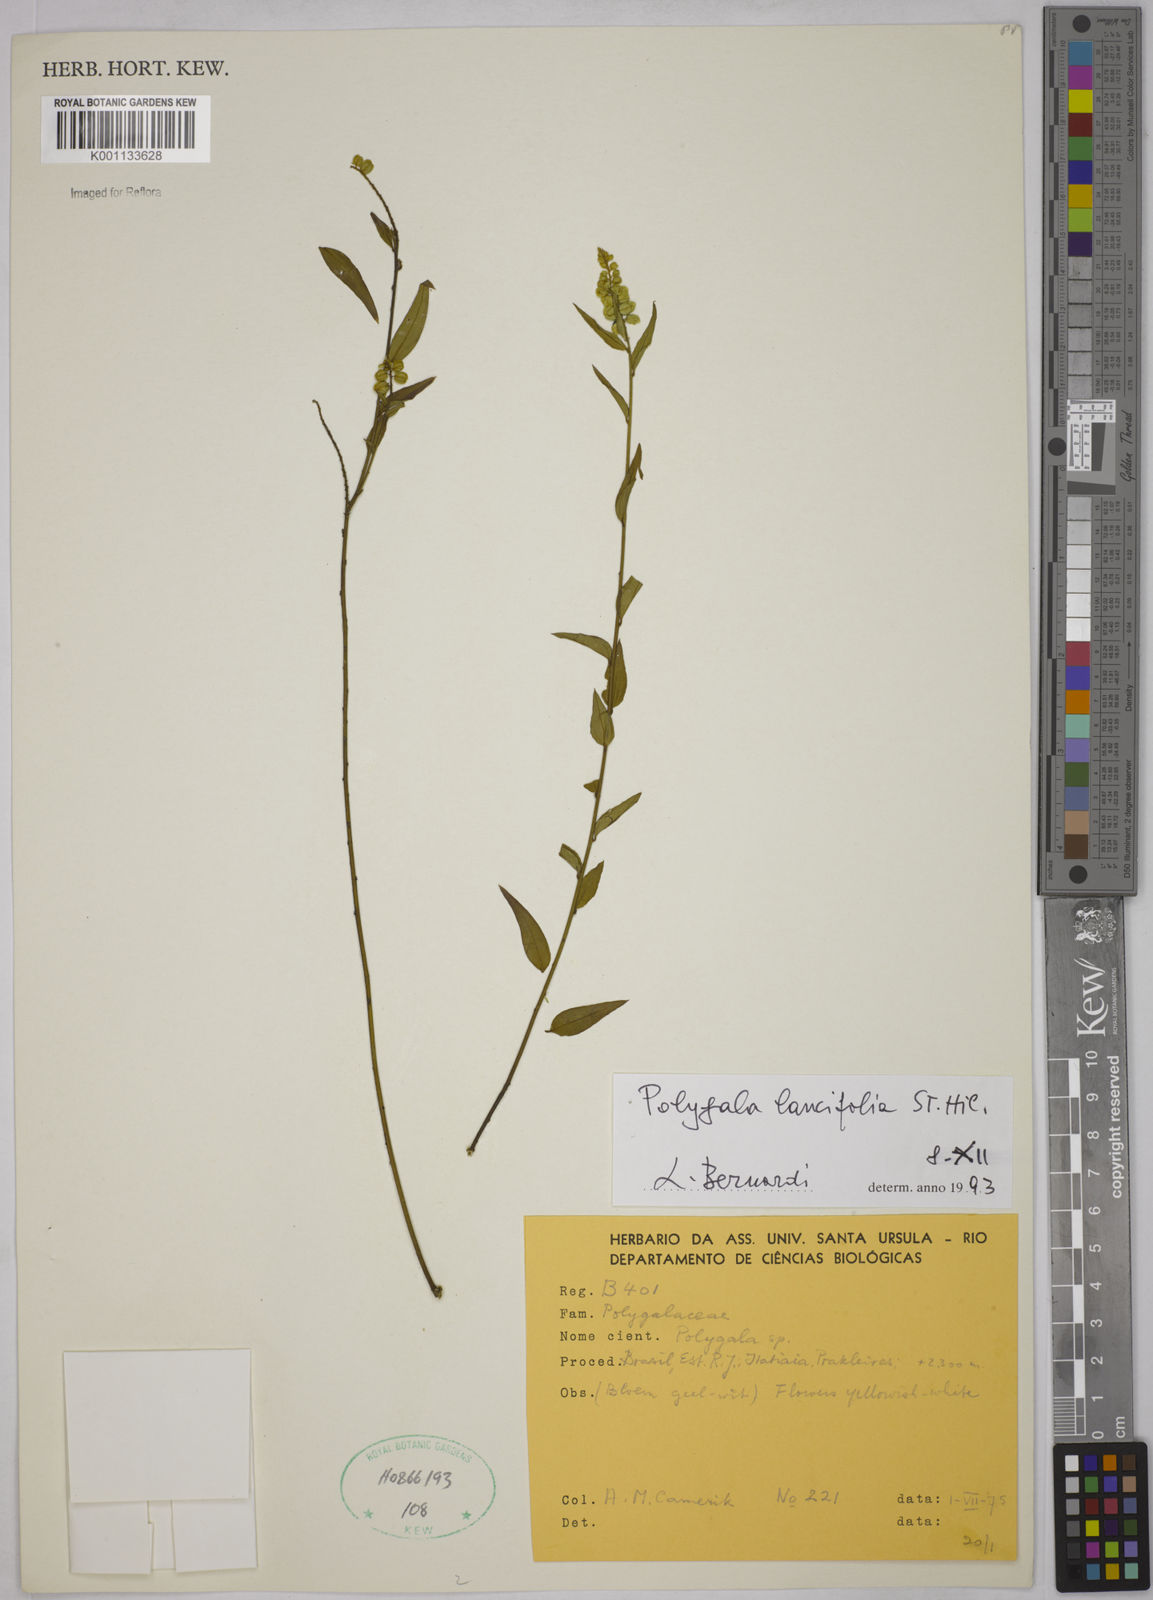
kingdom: Plantae
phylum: Tracheophyta
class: Magnoliopsida
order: Fabales
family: Polygalaceae
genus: Polygala
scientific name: Polygala lancifolia
